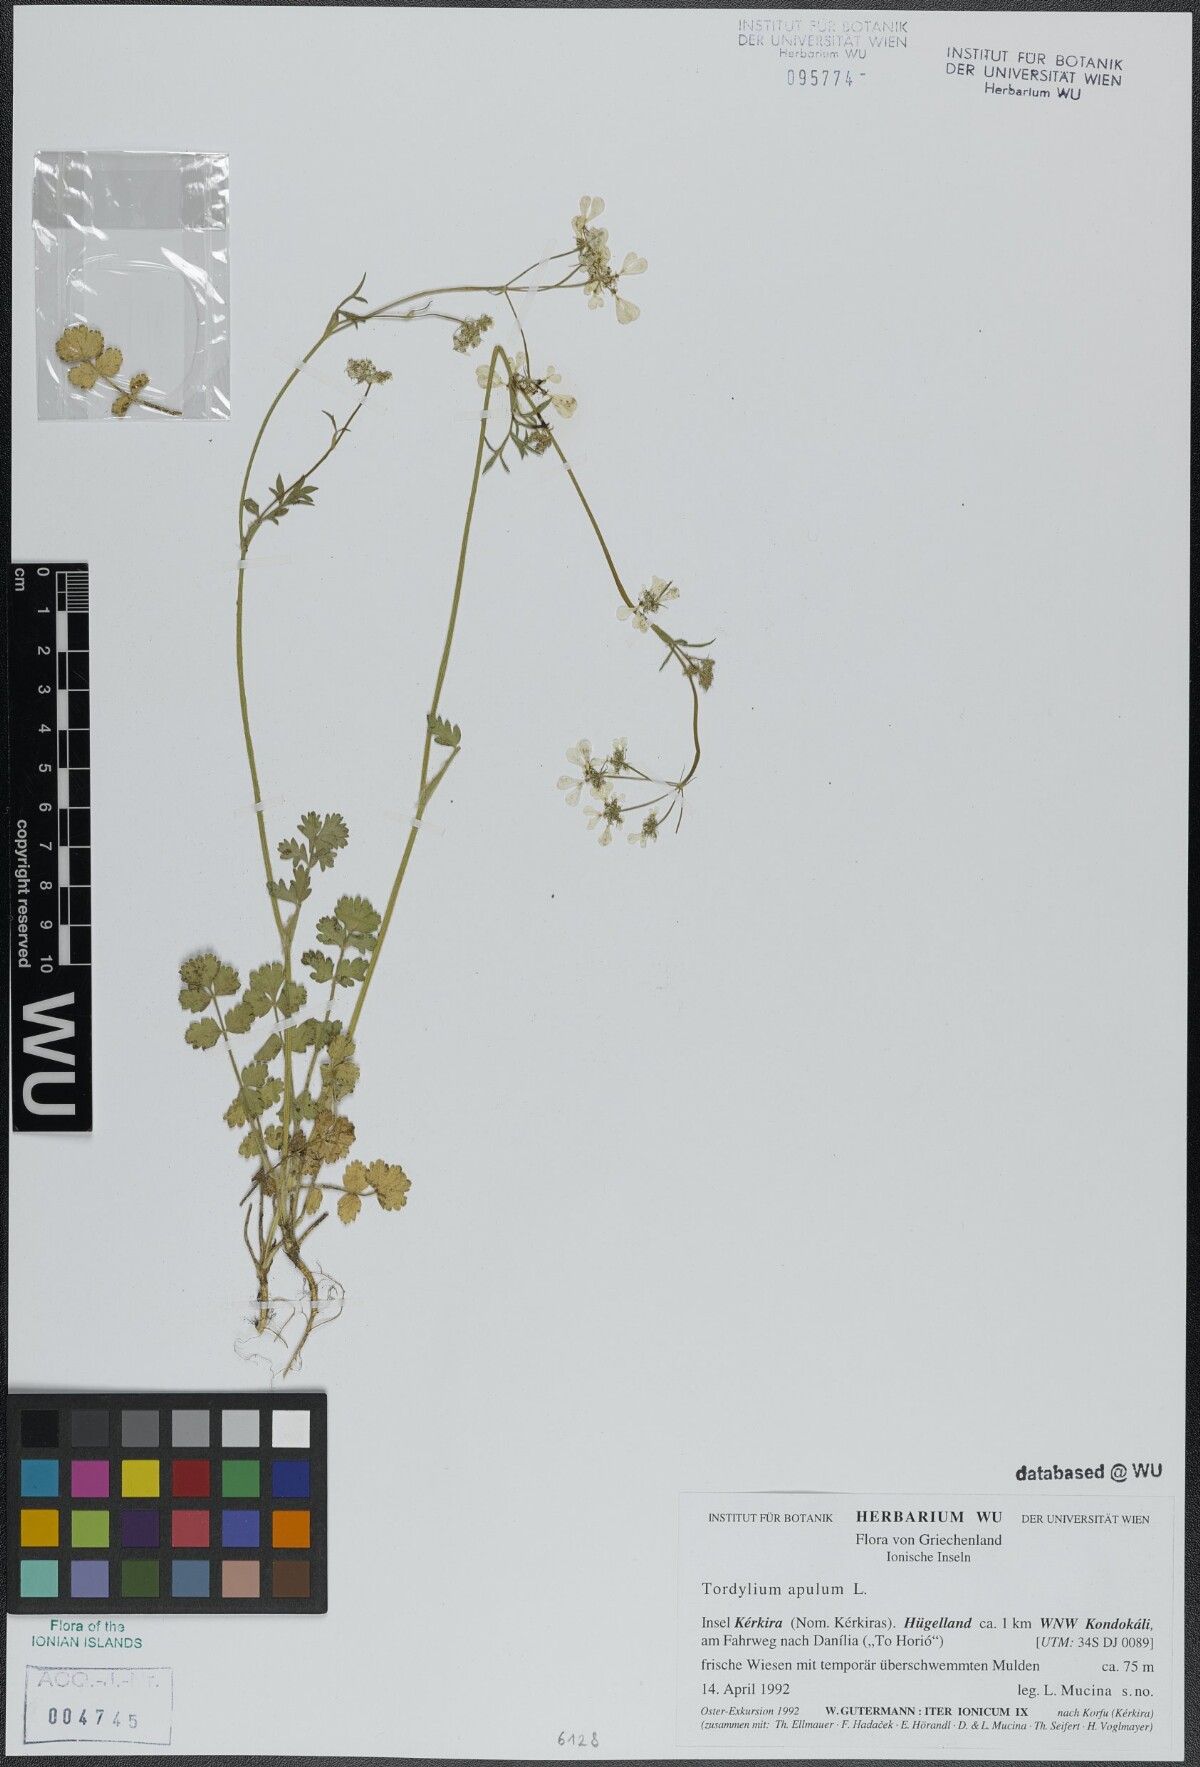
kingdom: Plantae
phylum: Tracheophyta
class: Magnoliopsida
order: Apiales
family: Apiaceae
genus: Tordylium
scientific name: Tordylium apulum
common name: Mediterranean hartwort
